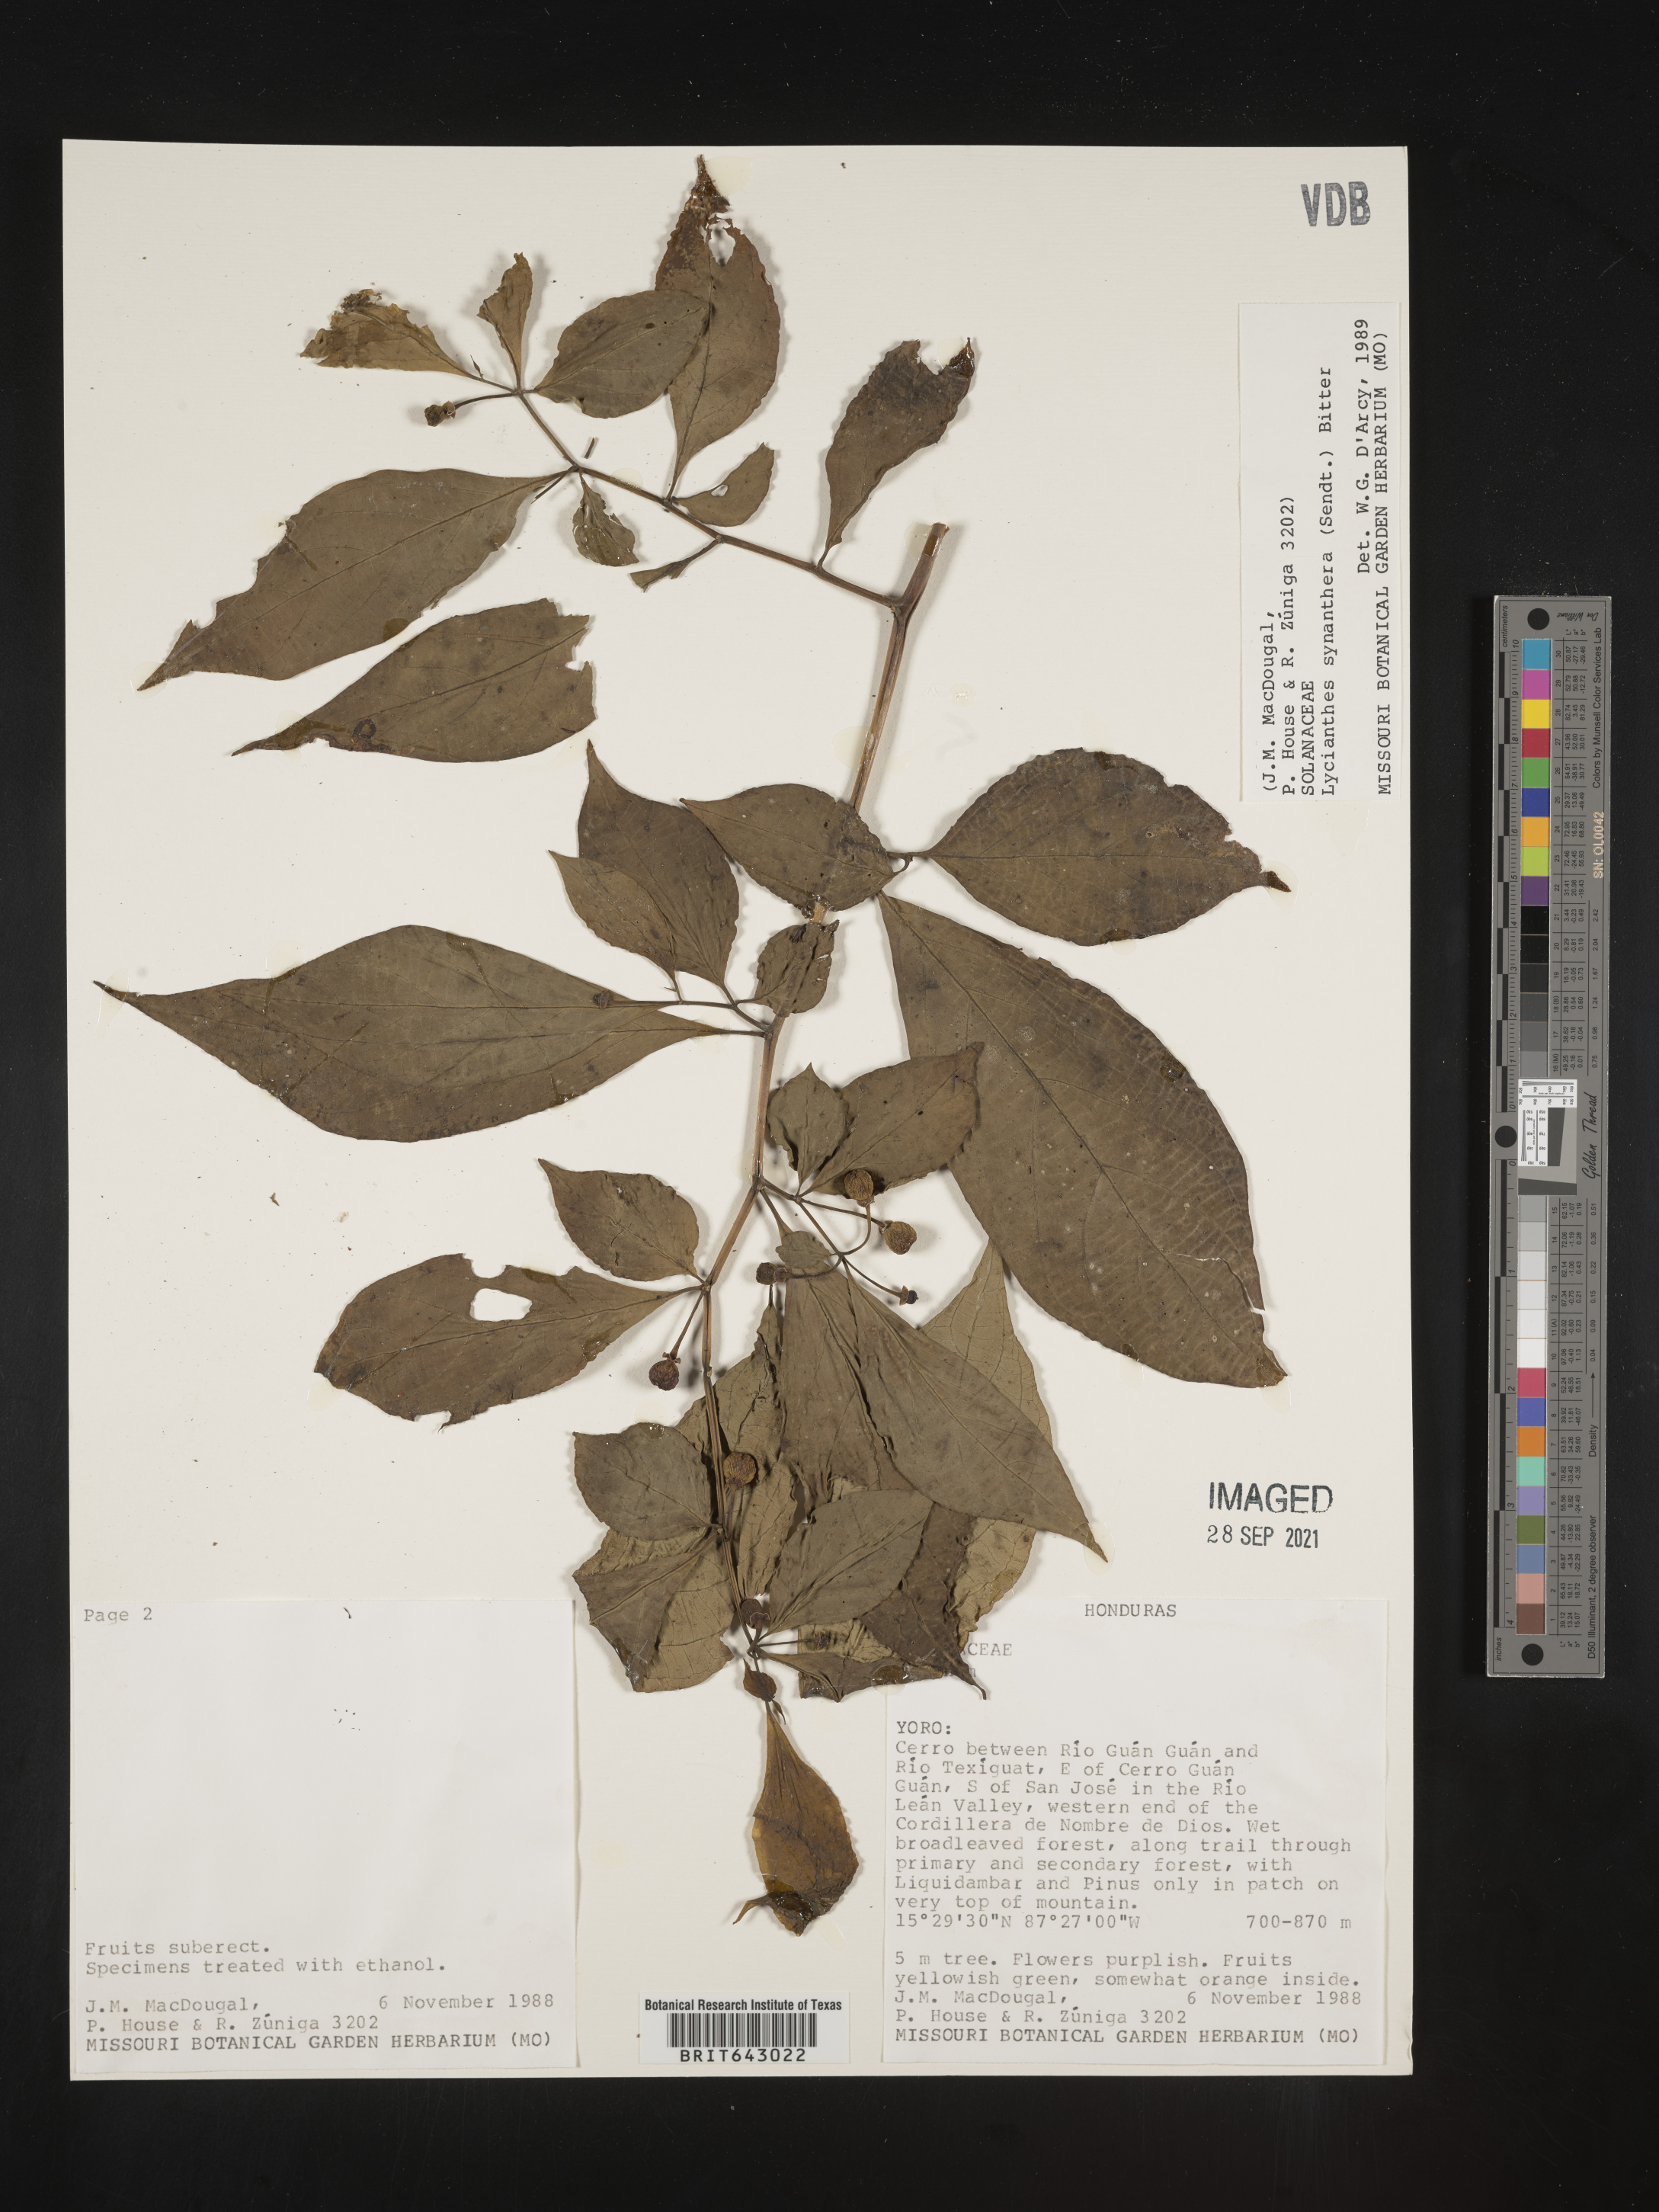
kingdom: Plantae
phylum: Tracheophyta
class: Magnoliopsida
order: Solanales
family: Solanaceae
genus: Lycianthes
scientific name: Lycianthes
